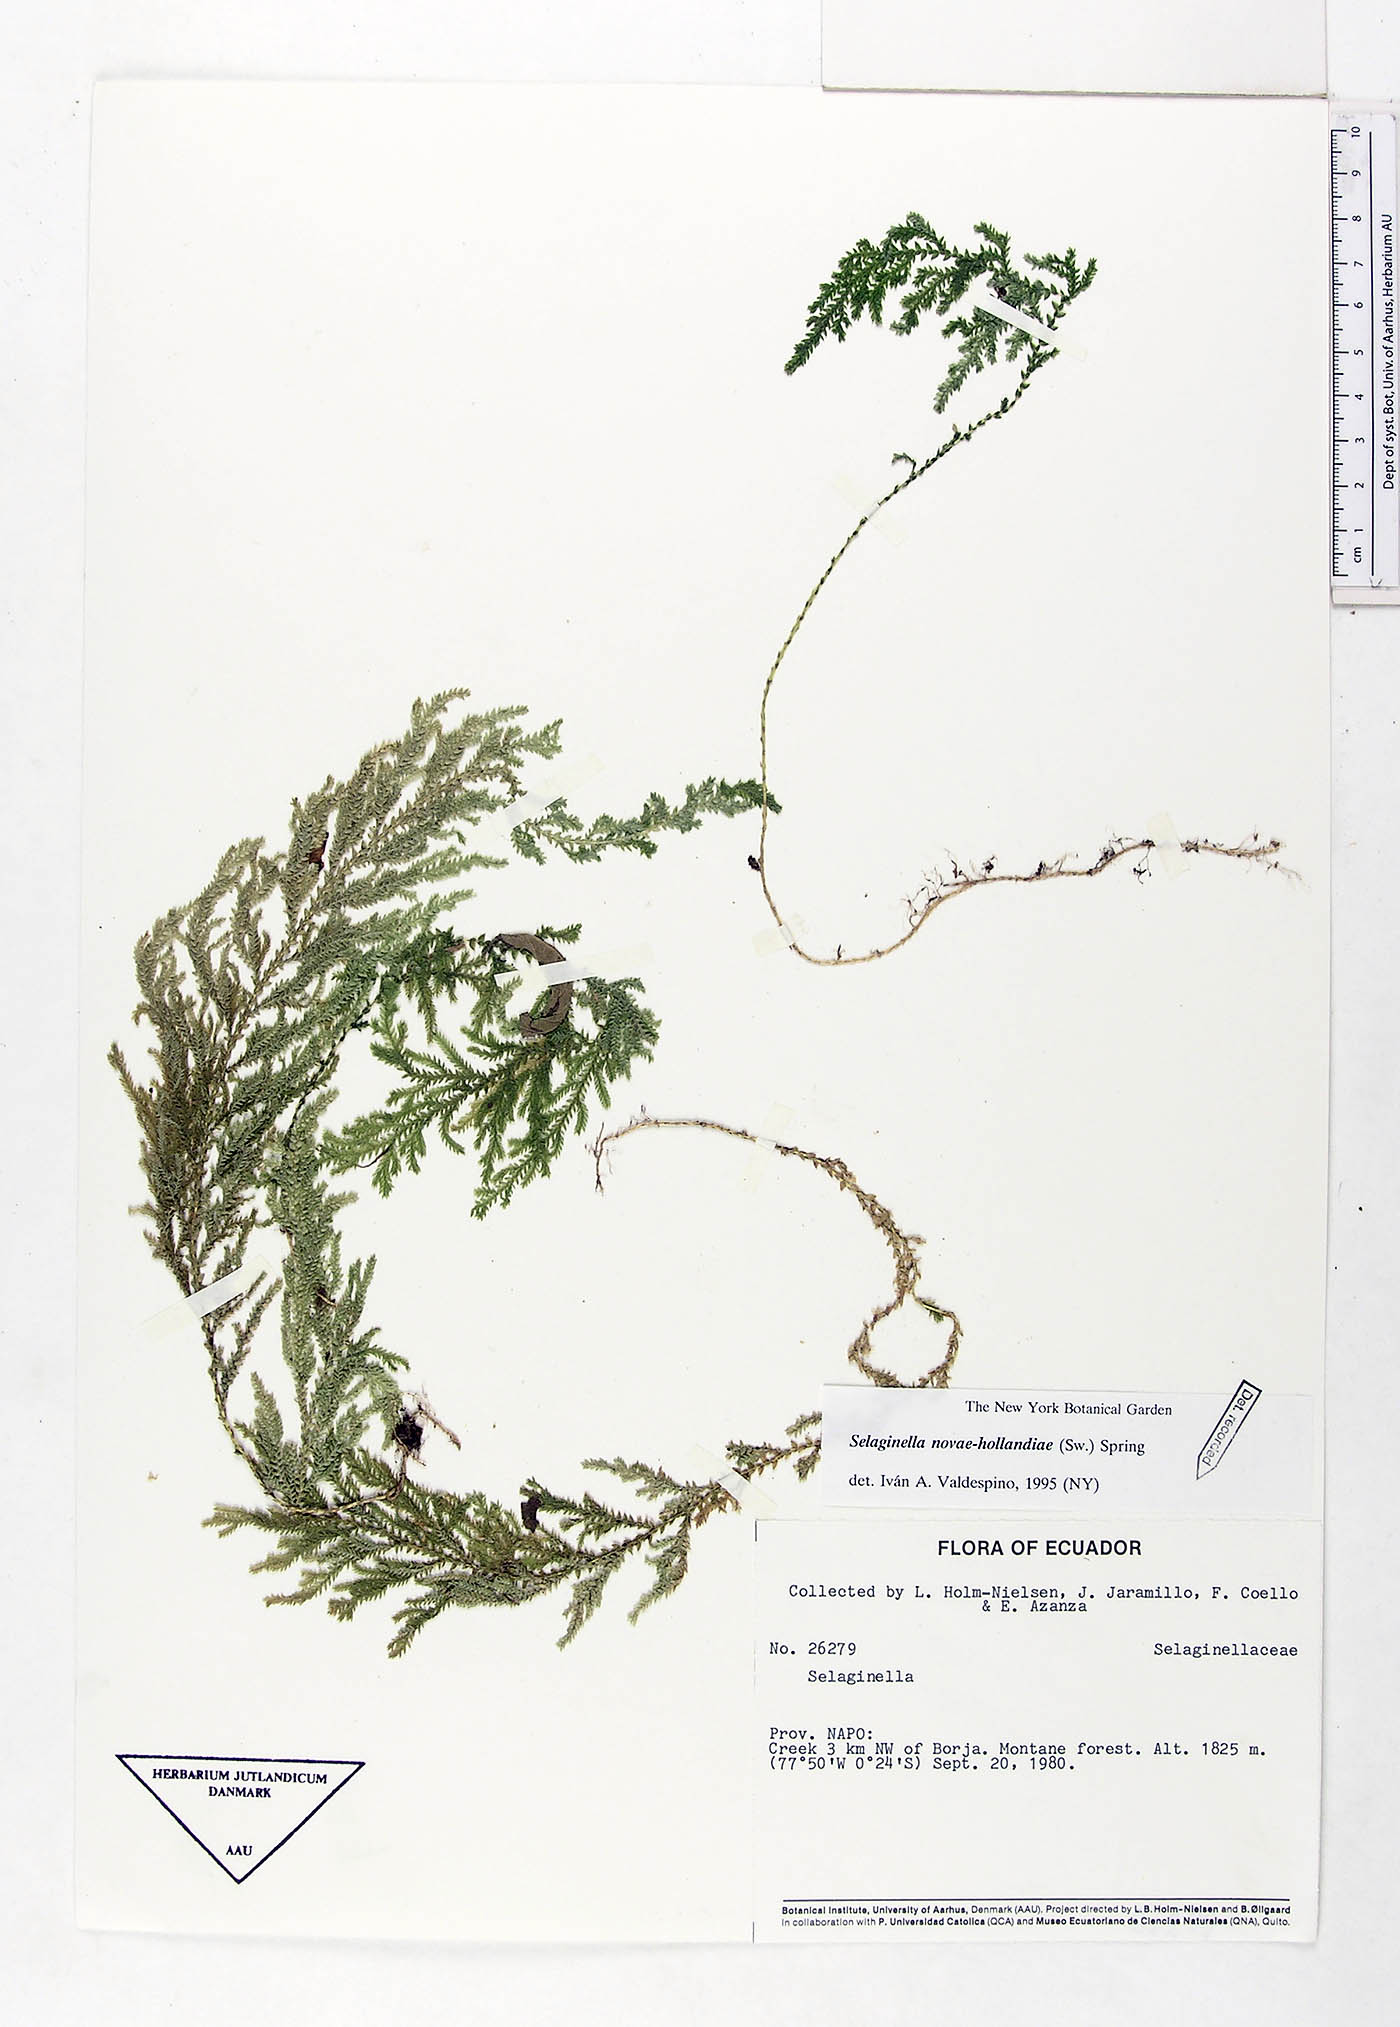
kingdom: Plantae
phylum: Tracheophyta
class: Lycopodiopsida
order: Selaginellales
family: Selaginellaceae
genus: Selaginella
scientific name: Selaginella novae-hollandiae
